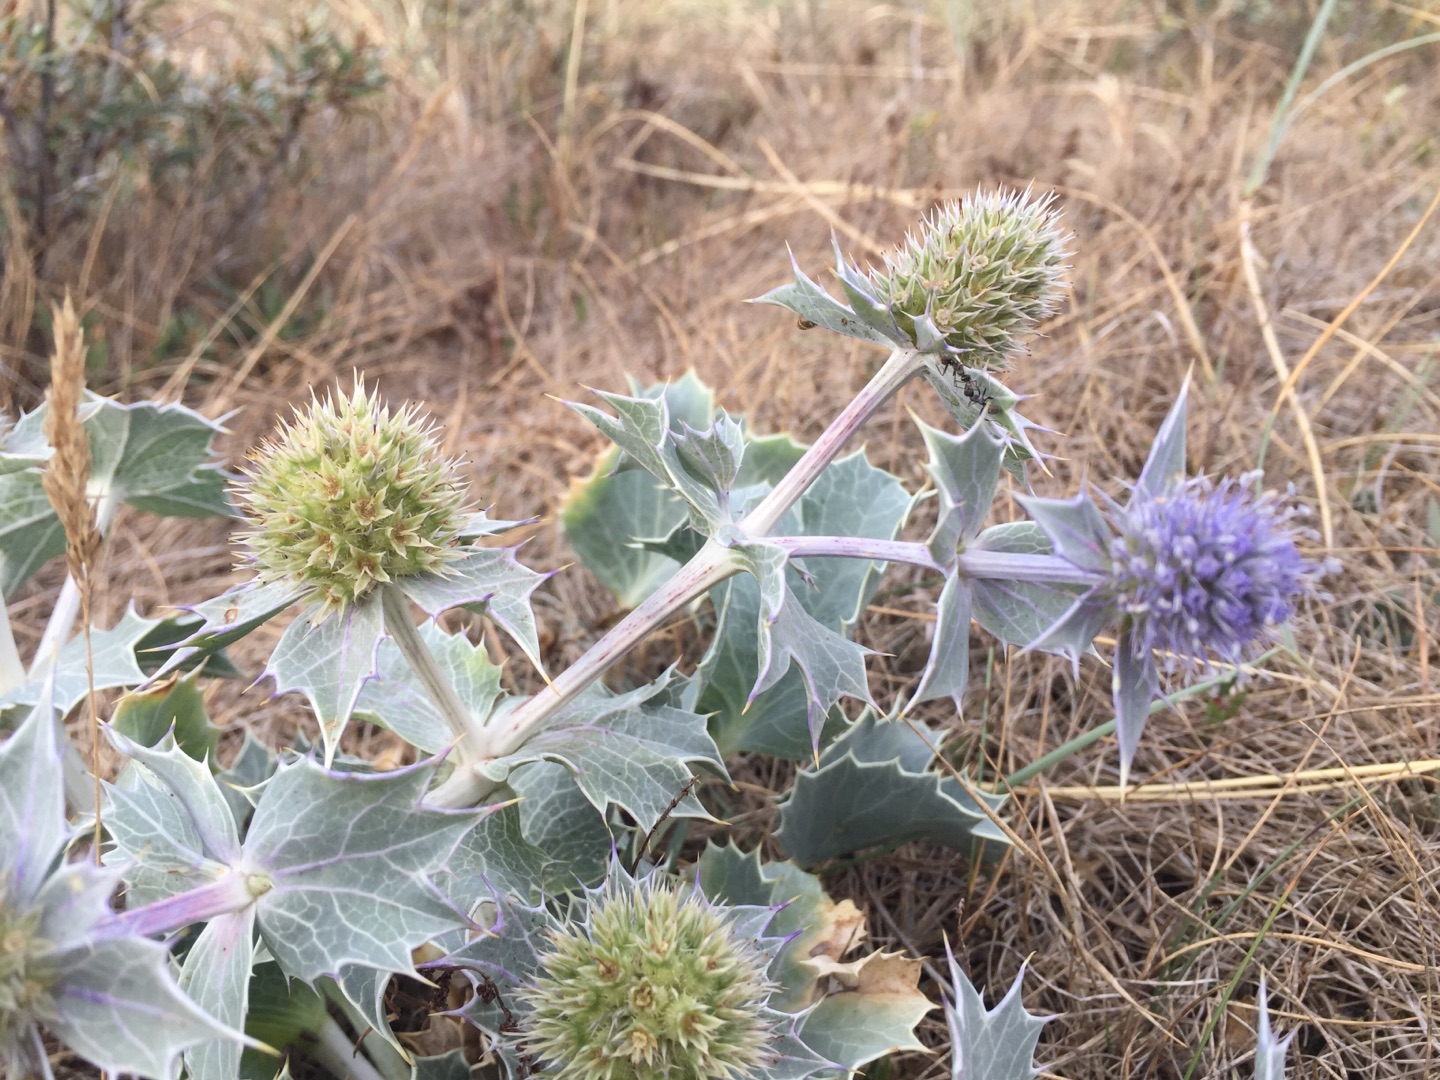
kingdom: Plantae
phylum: Tracheophyta
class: Magnoliopsida
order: Apiales
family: Apiaceae
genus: Eryngium
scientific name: Eryngium maritimum
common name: Strand-mandstro
